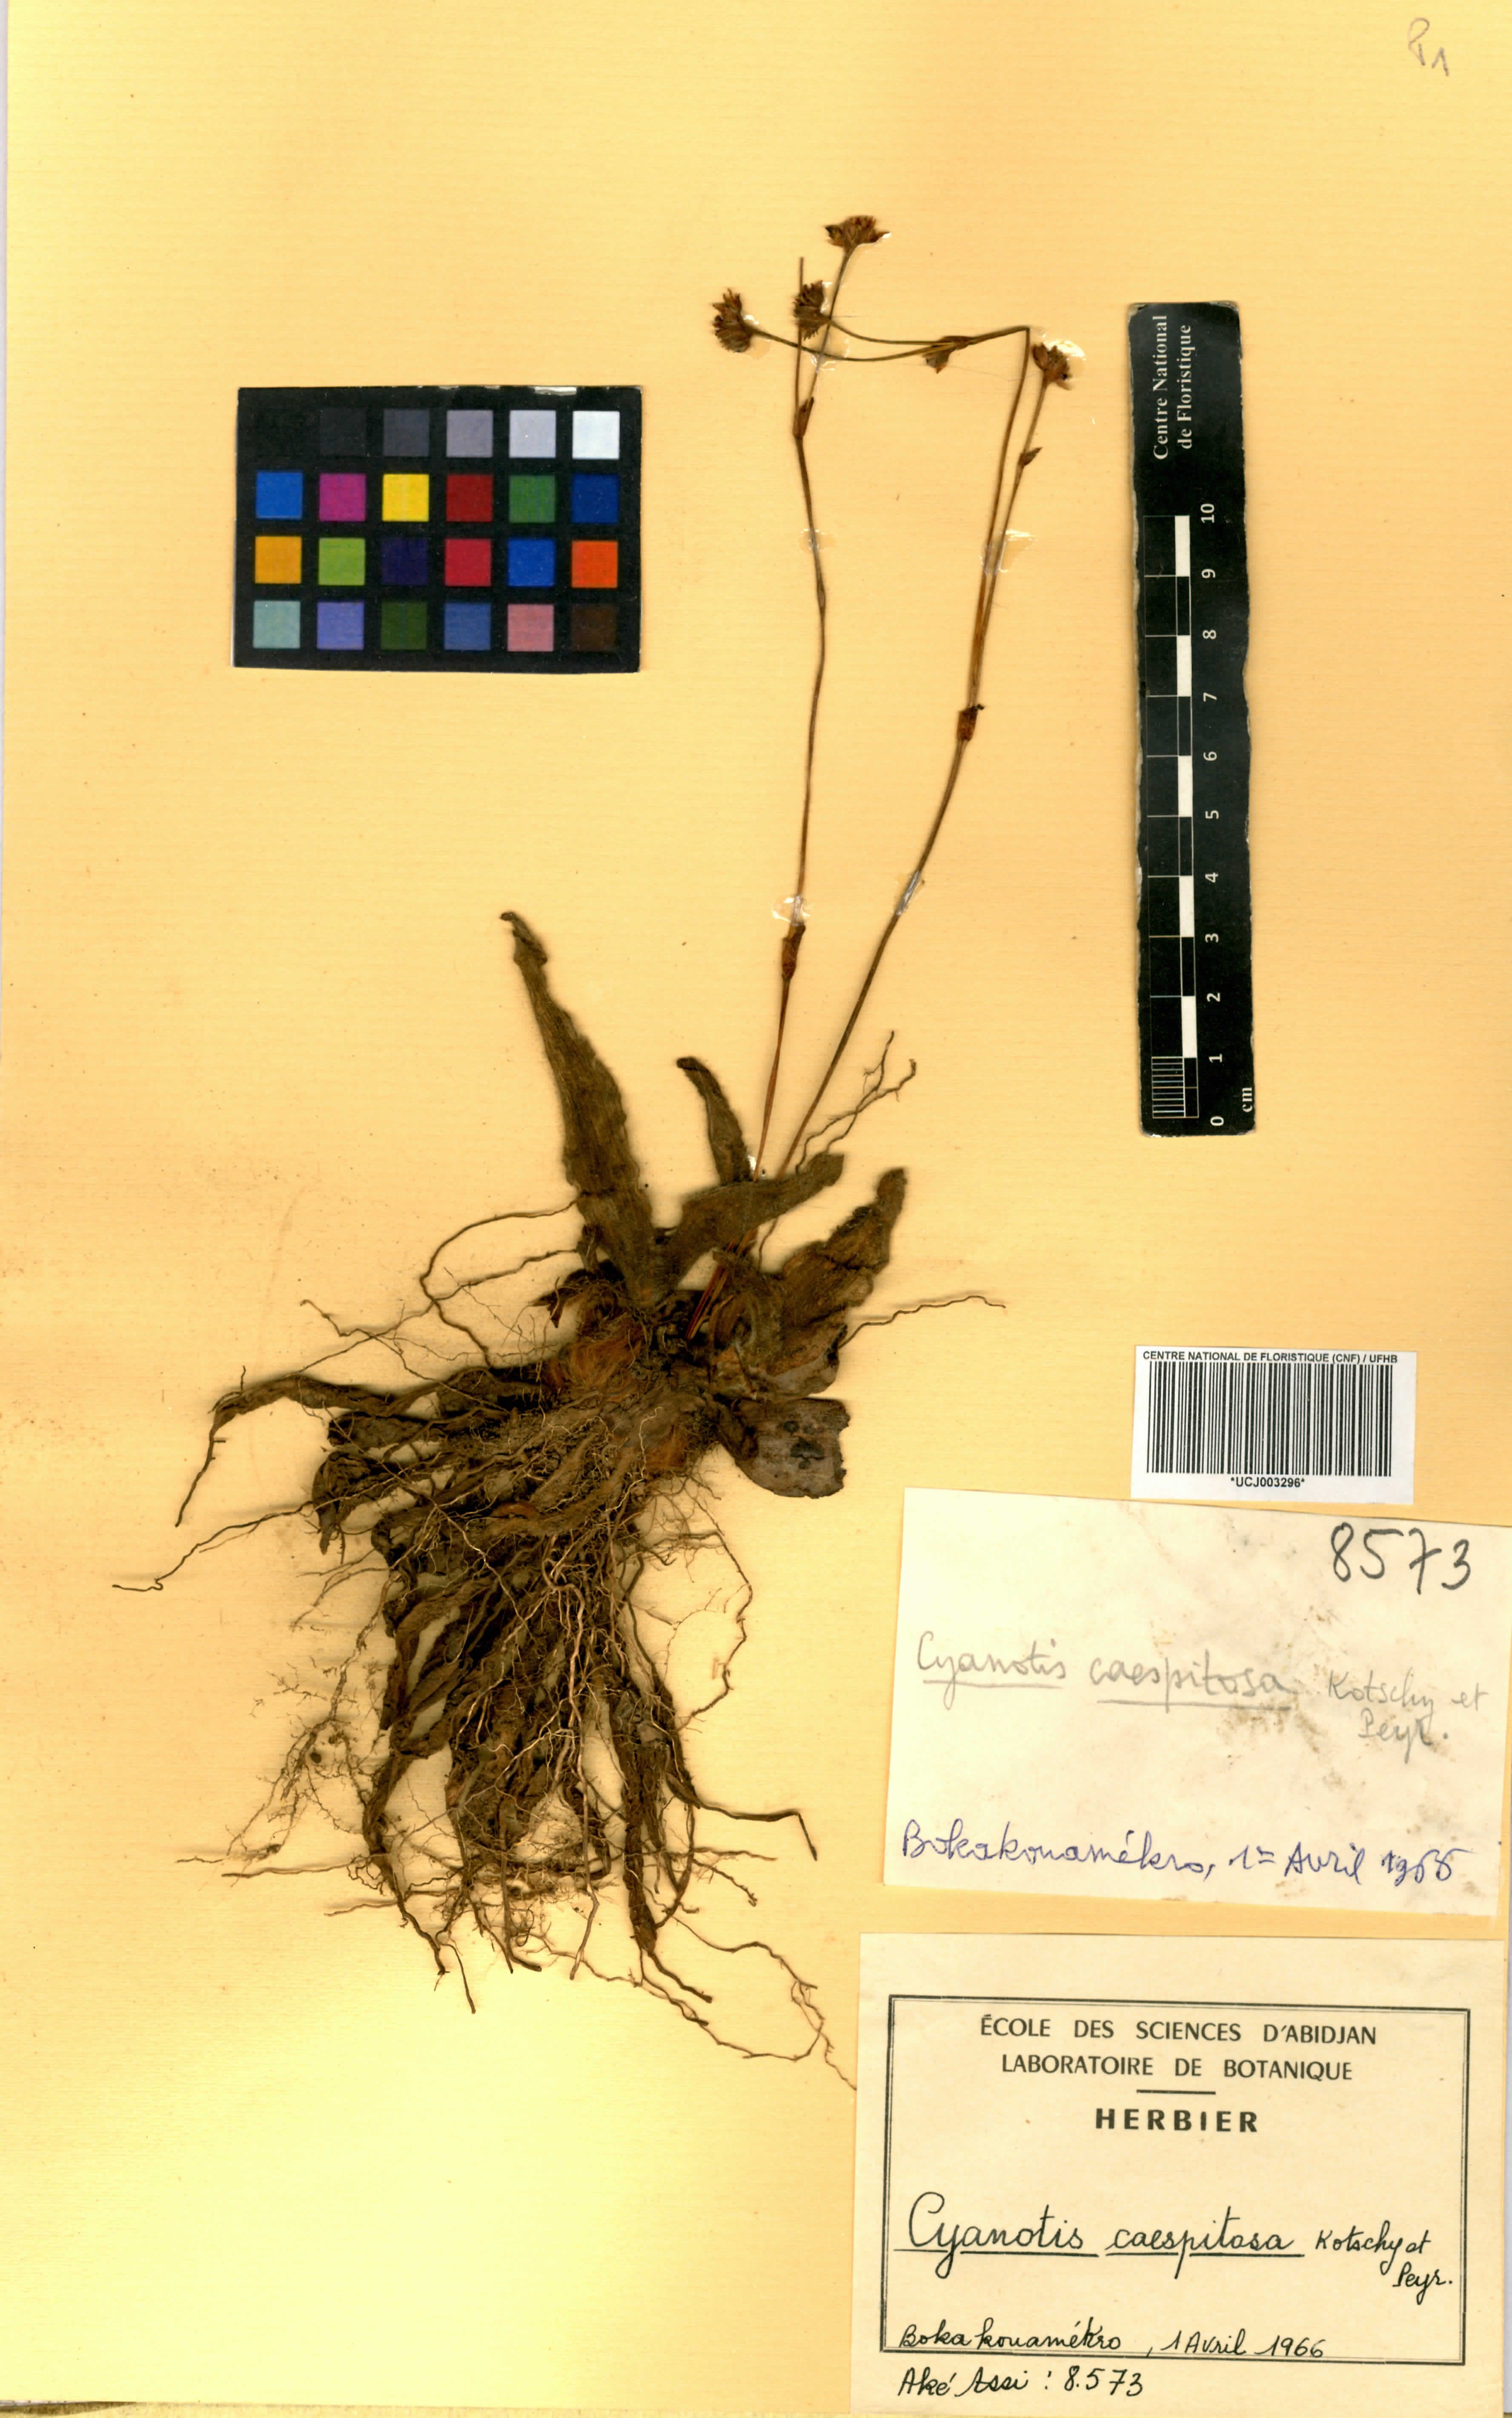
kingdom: Plantae
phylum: Tracheophyta
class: Liliopsida
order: Commelinales
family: Commelinaceae
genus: Cyanotis
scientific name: Cyanotis caespitosa
